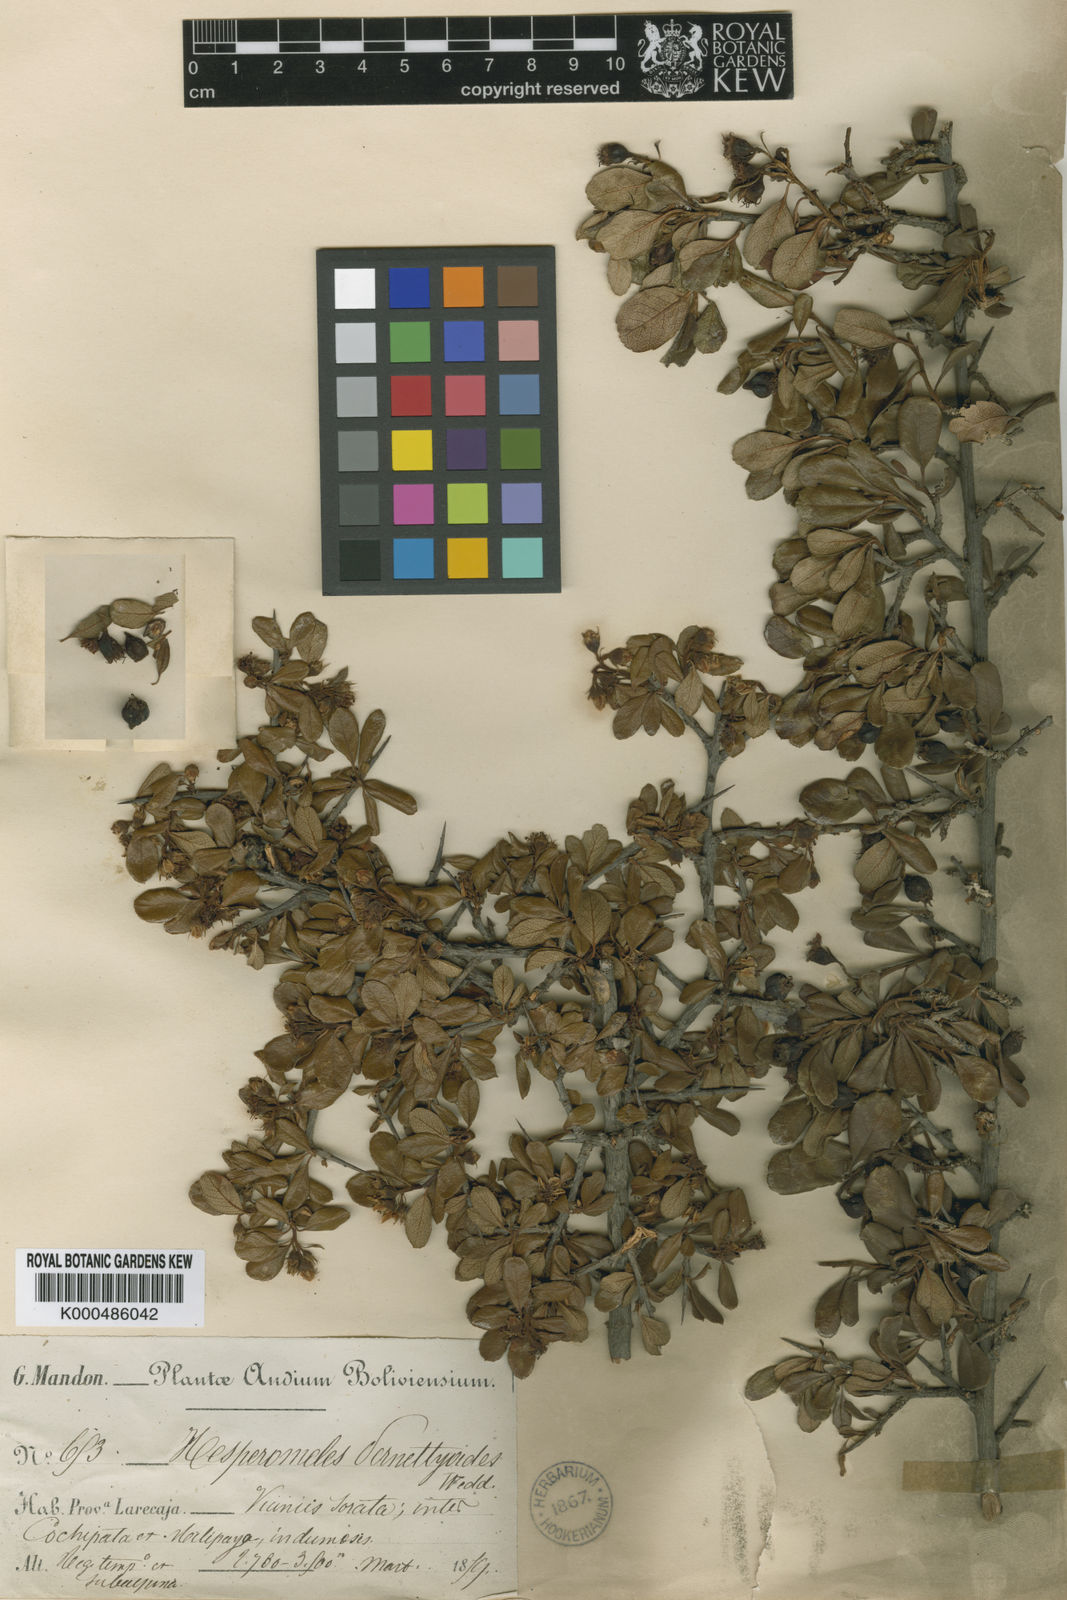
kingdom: Plantae
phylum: Tracheophyta
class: Magnoliopsida
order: Rosales
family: Rosaceae
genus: Hesperomeles
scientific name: Hesperomeles obtusifolia
